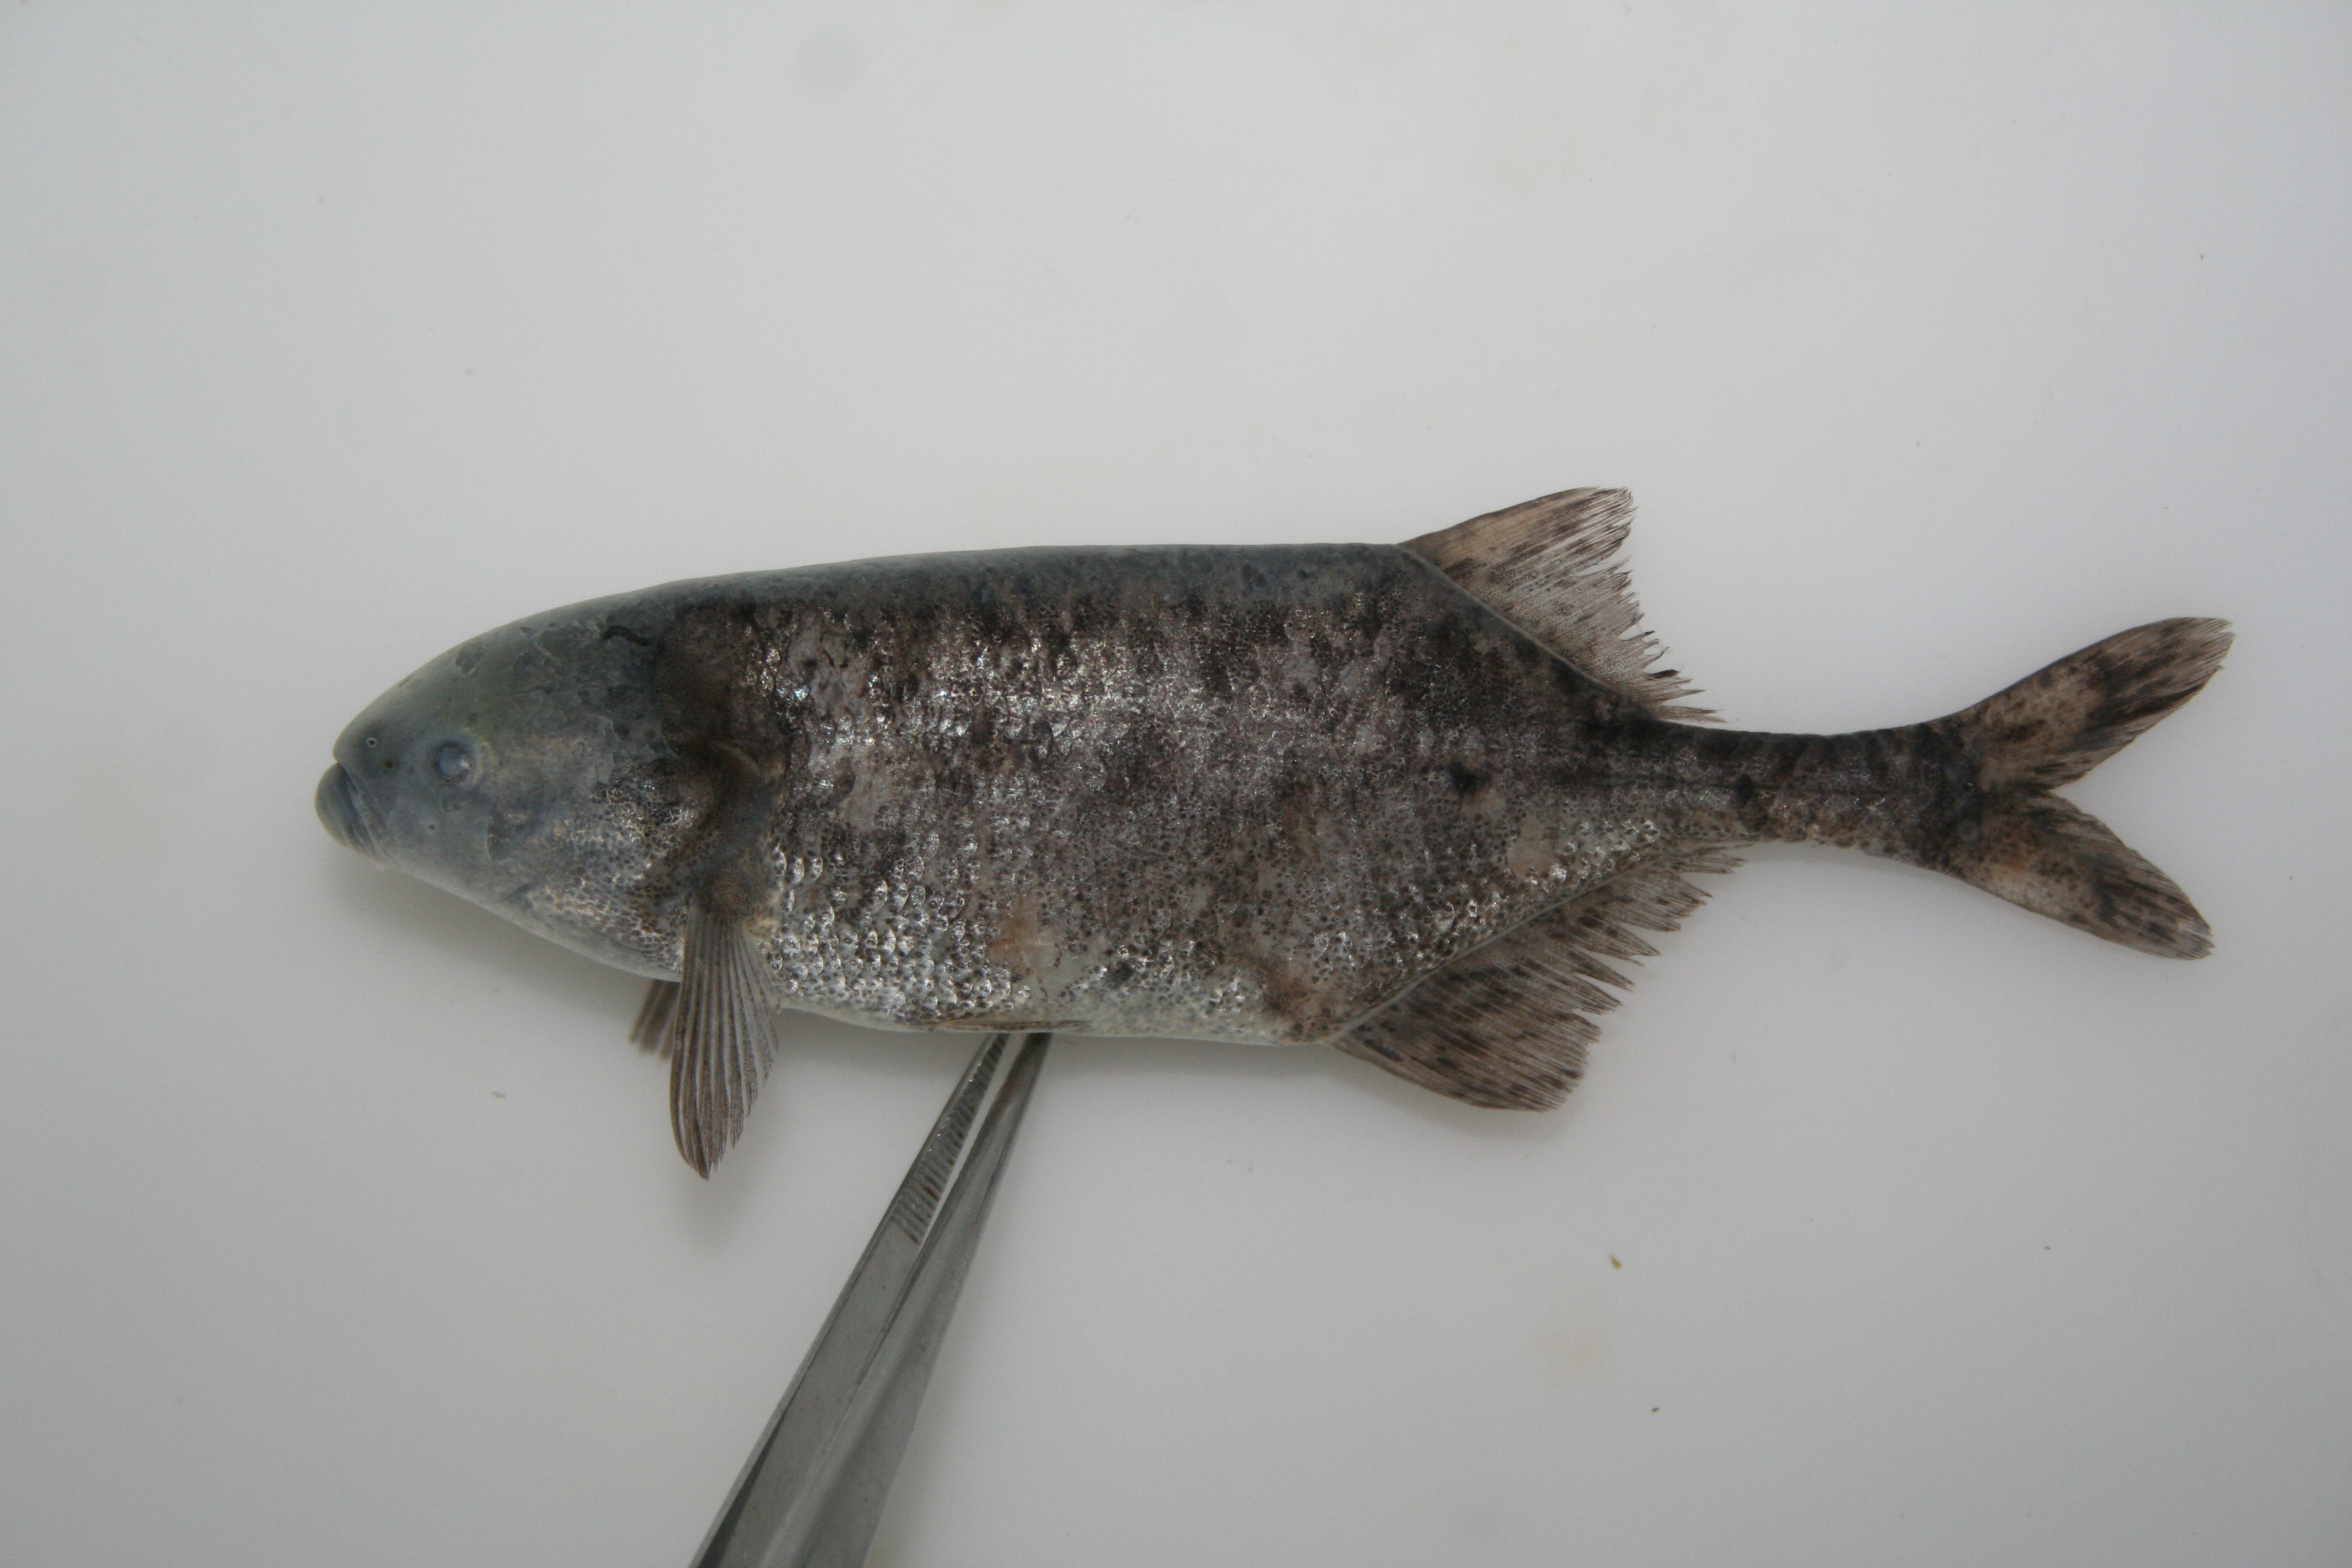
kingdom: Animalia
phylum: Chordata
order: Osteoglossiformes
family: Mormyridae
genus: Marcusenius
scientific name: Marcusenius
